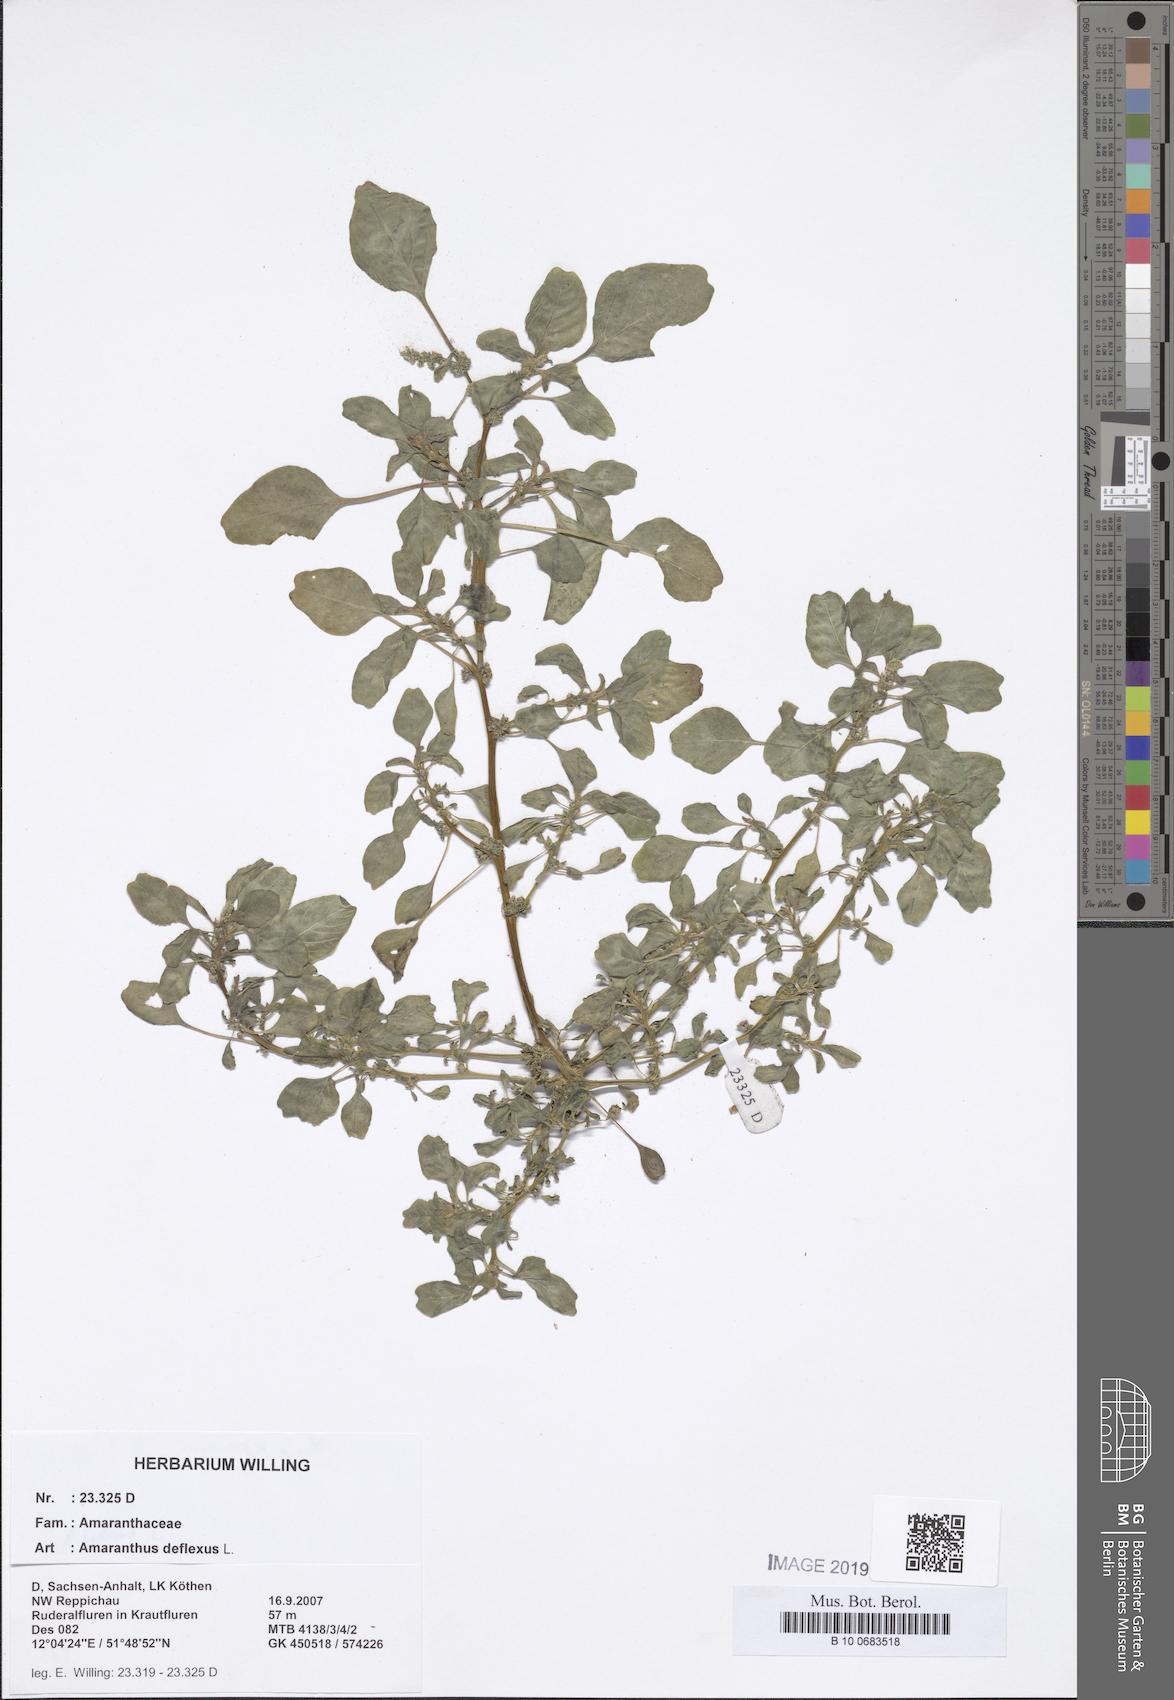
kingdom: Plantae
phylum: Tracheophyta
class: Magnoliopsida
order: Caryophyllales
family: Amaranthaceae
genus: Amaranthus
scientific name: Amaranthus deflexus
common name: Perennial pigweed
